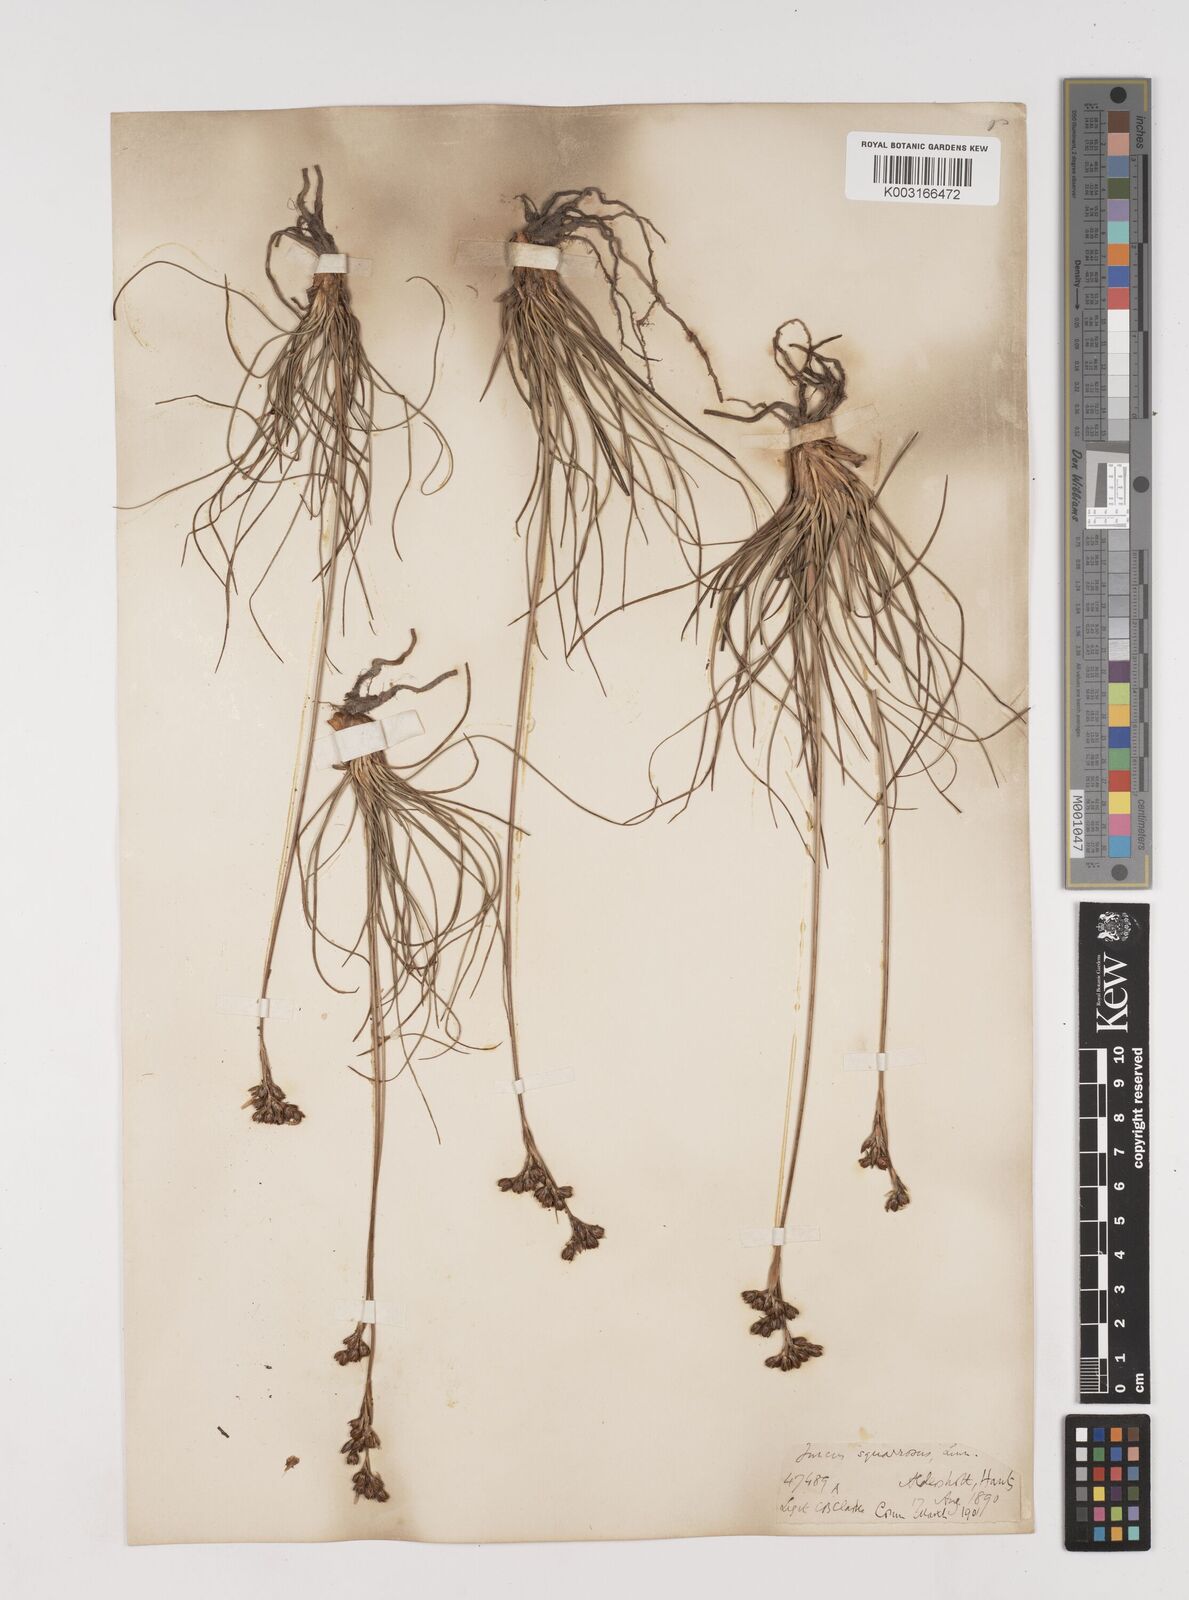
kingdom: Plantae
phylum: Tracheophyta
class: Liliopsida
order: Poales
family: Juncaceae
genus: Juncus
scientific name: Juncus squarrosus
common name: Heath rush
